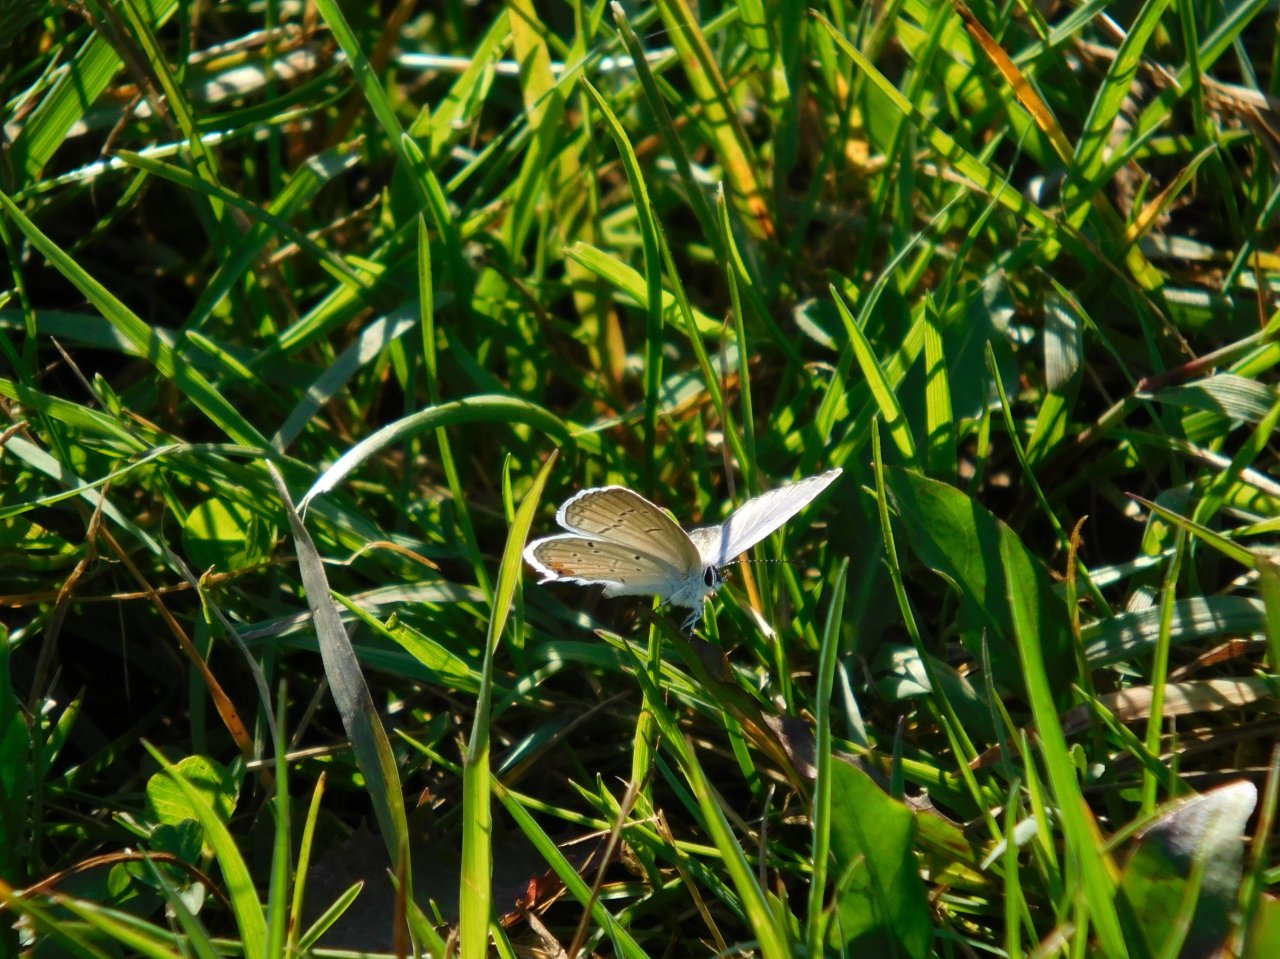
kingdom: Animalia
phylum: Arthropoda
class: Insecta
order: Lepidoptera
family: Lycaenidae
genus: Elkalyce
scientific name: Elkalyce comyntas
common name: Eastern Tailed-Blue
